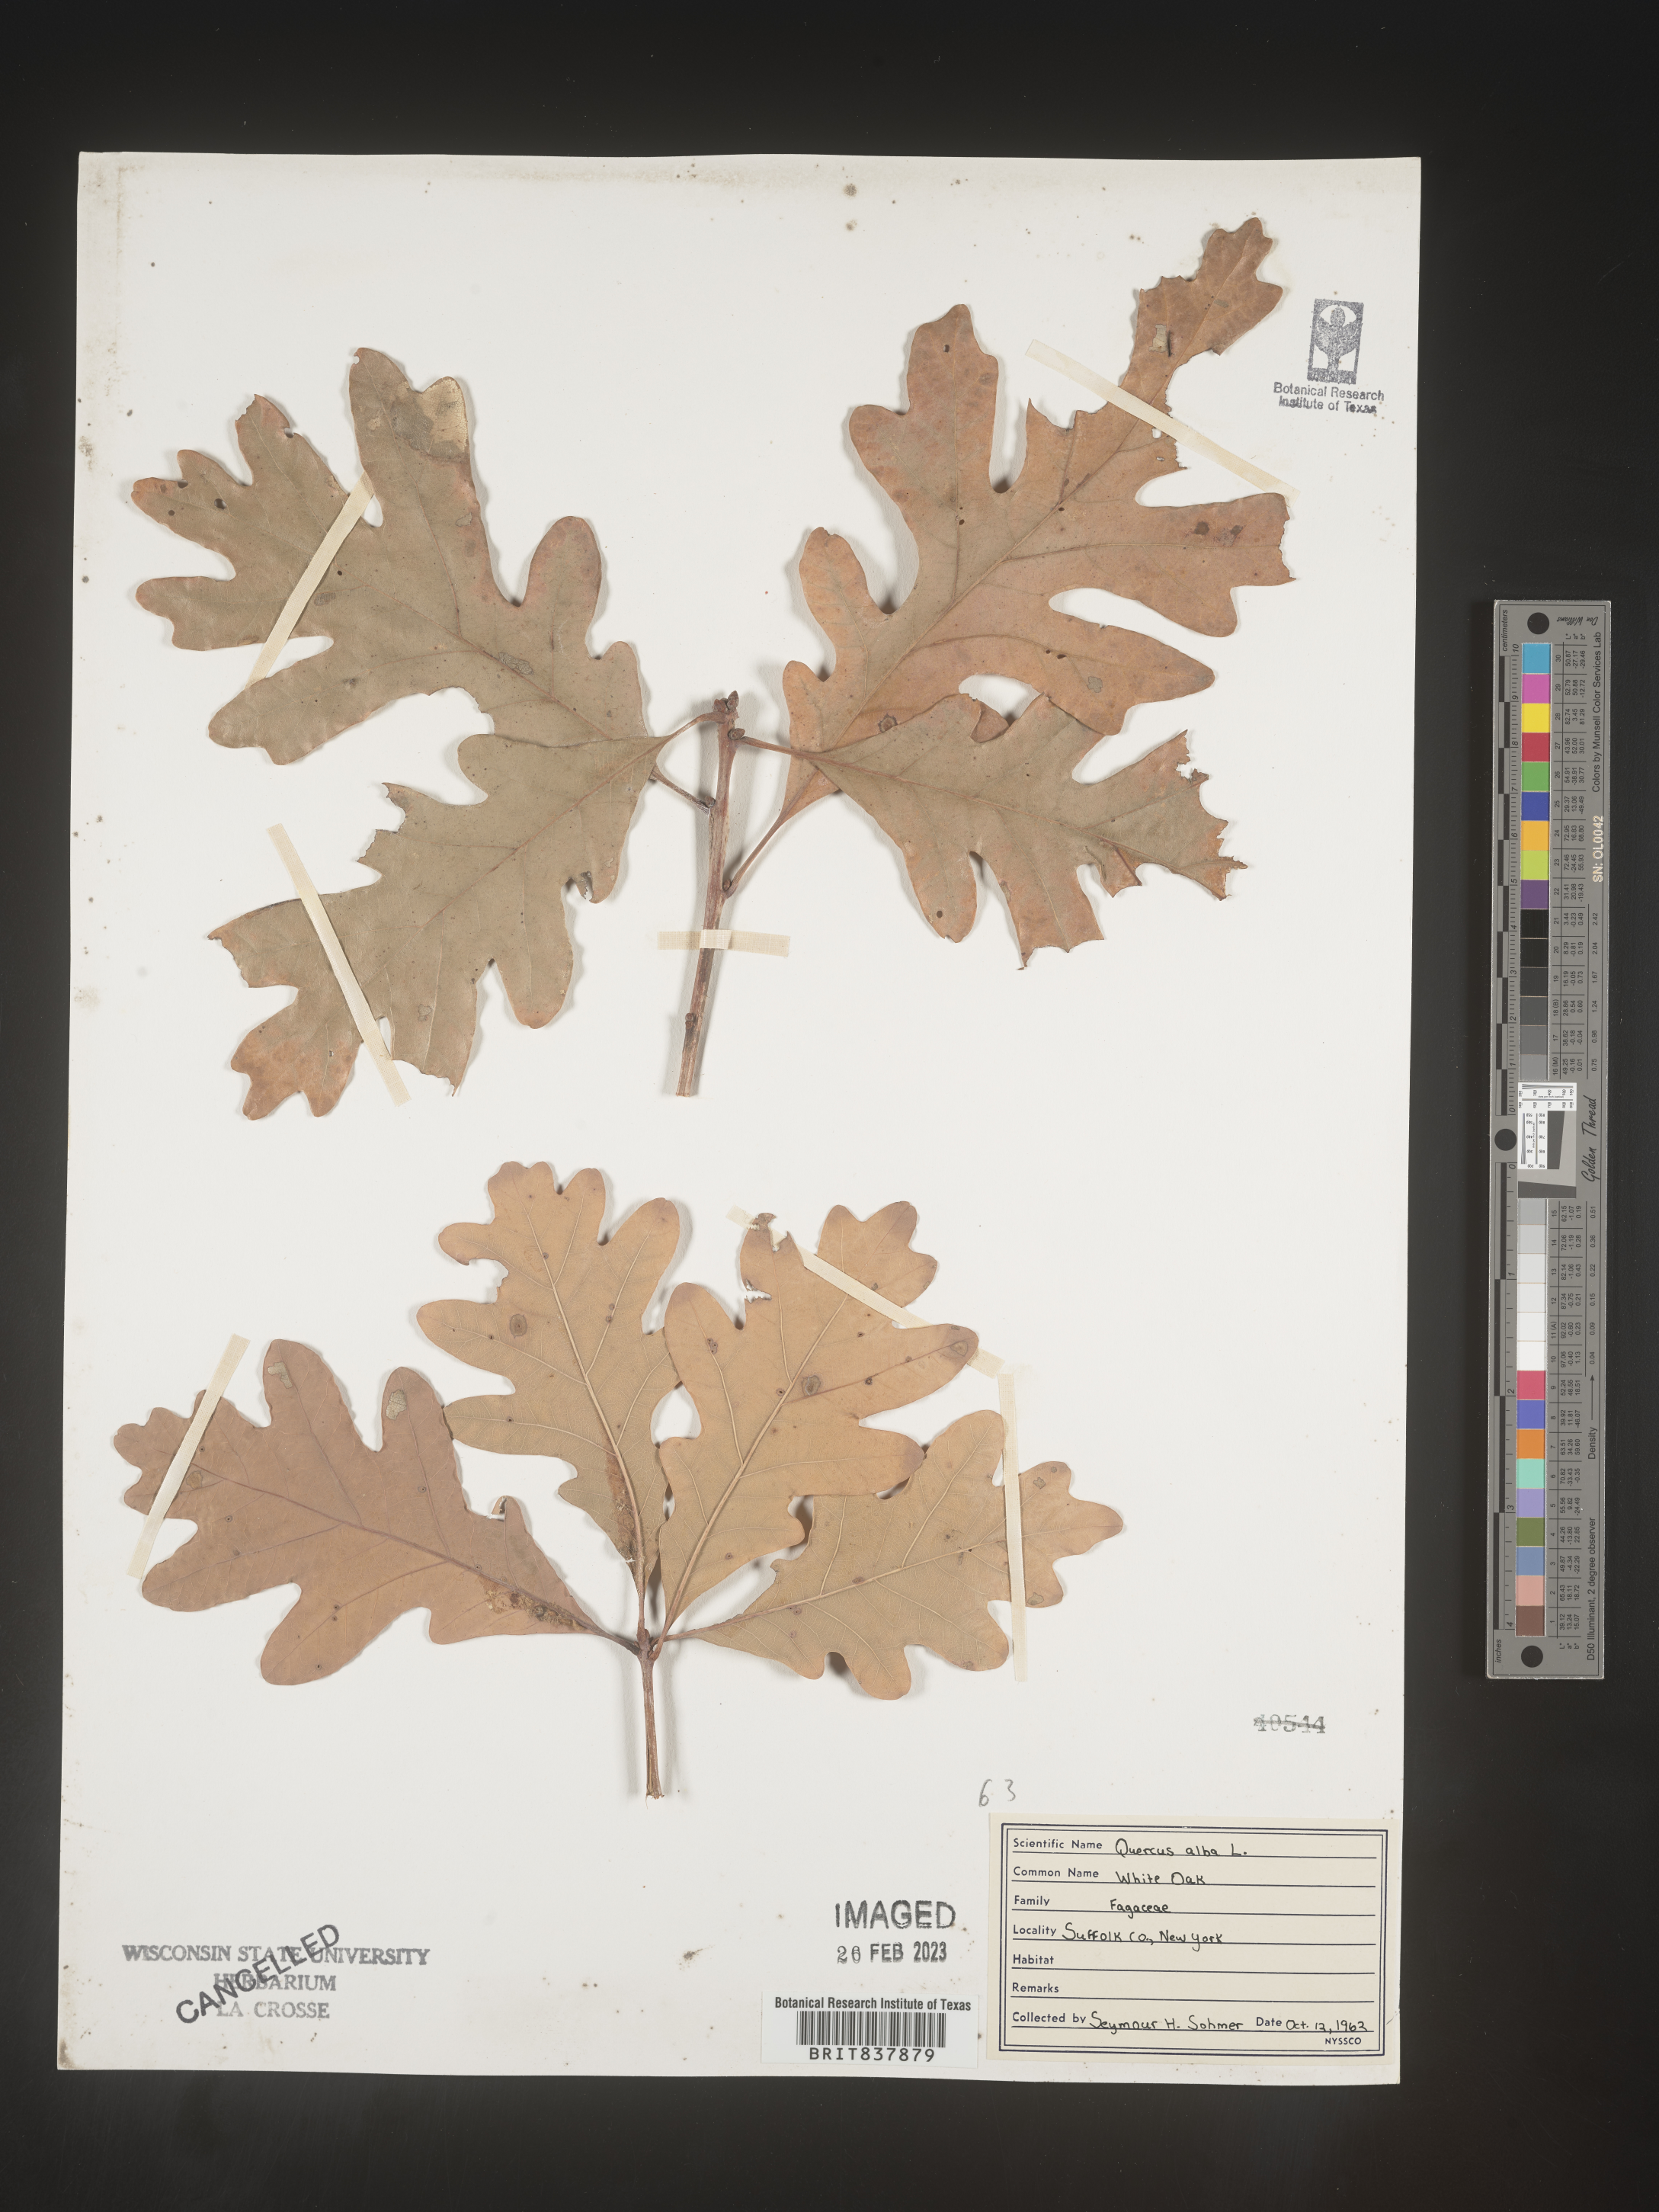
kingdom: Plantae
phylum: Tracheophyta
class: Magnoliopsida
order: Fagales
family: Fagaceae
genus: Quercus
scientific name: Quercus alba
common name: White oak
